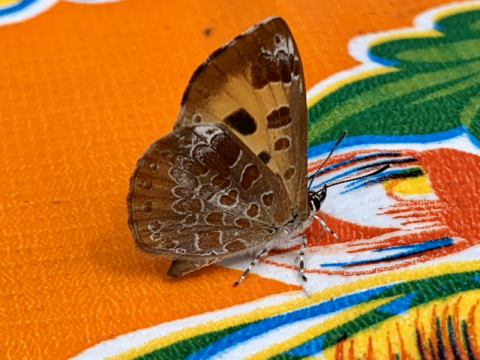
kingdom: Animalia
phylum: Arthropoda
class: Insecta
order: Lepidoptera
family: Lycaenidae
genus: Feniseca
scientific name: Feniseca tarquinius
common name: Harvester
